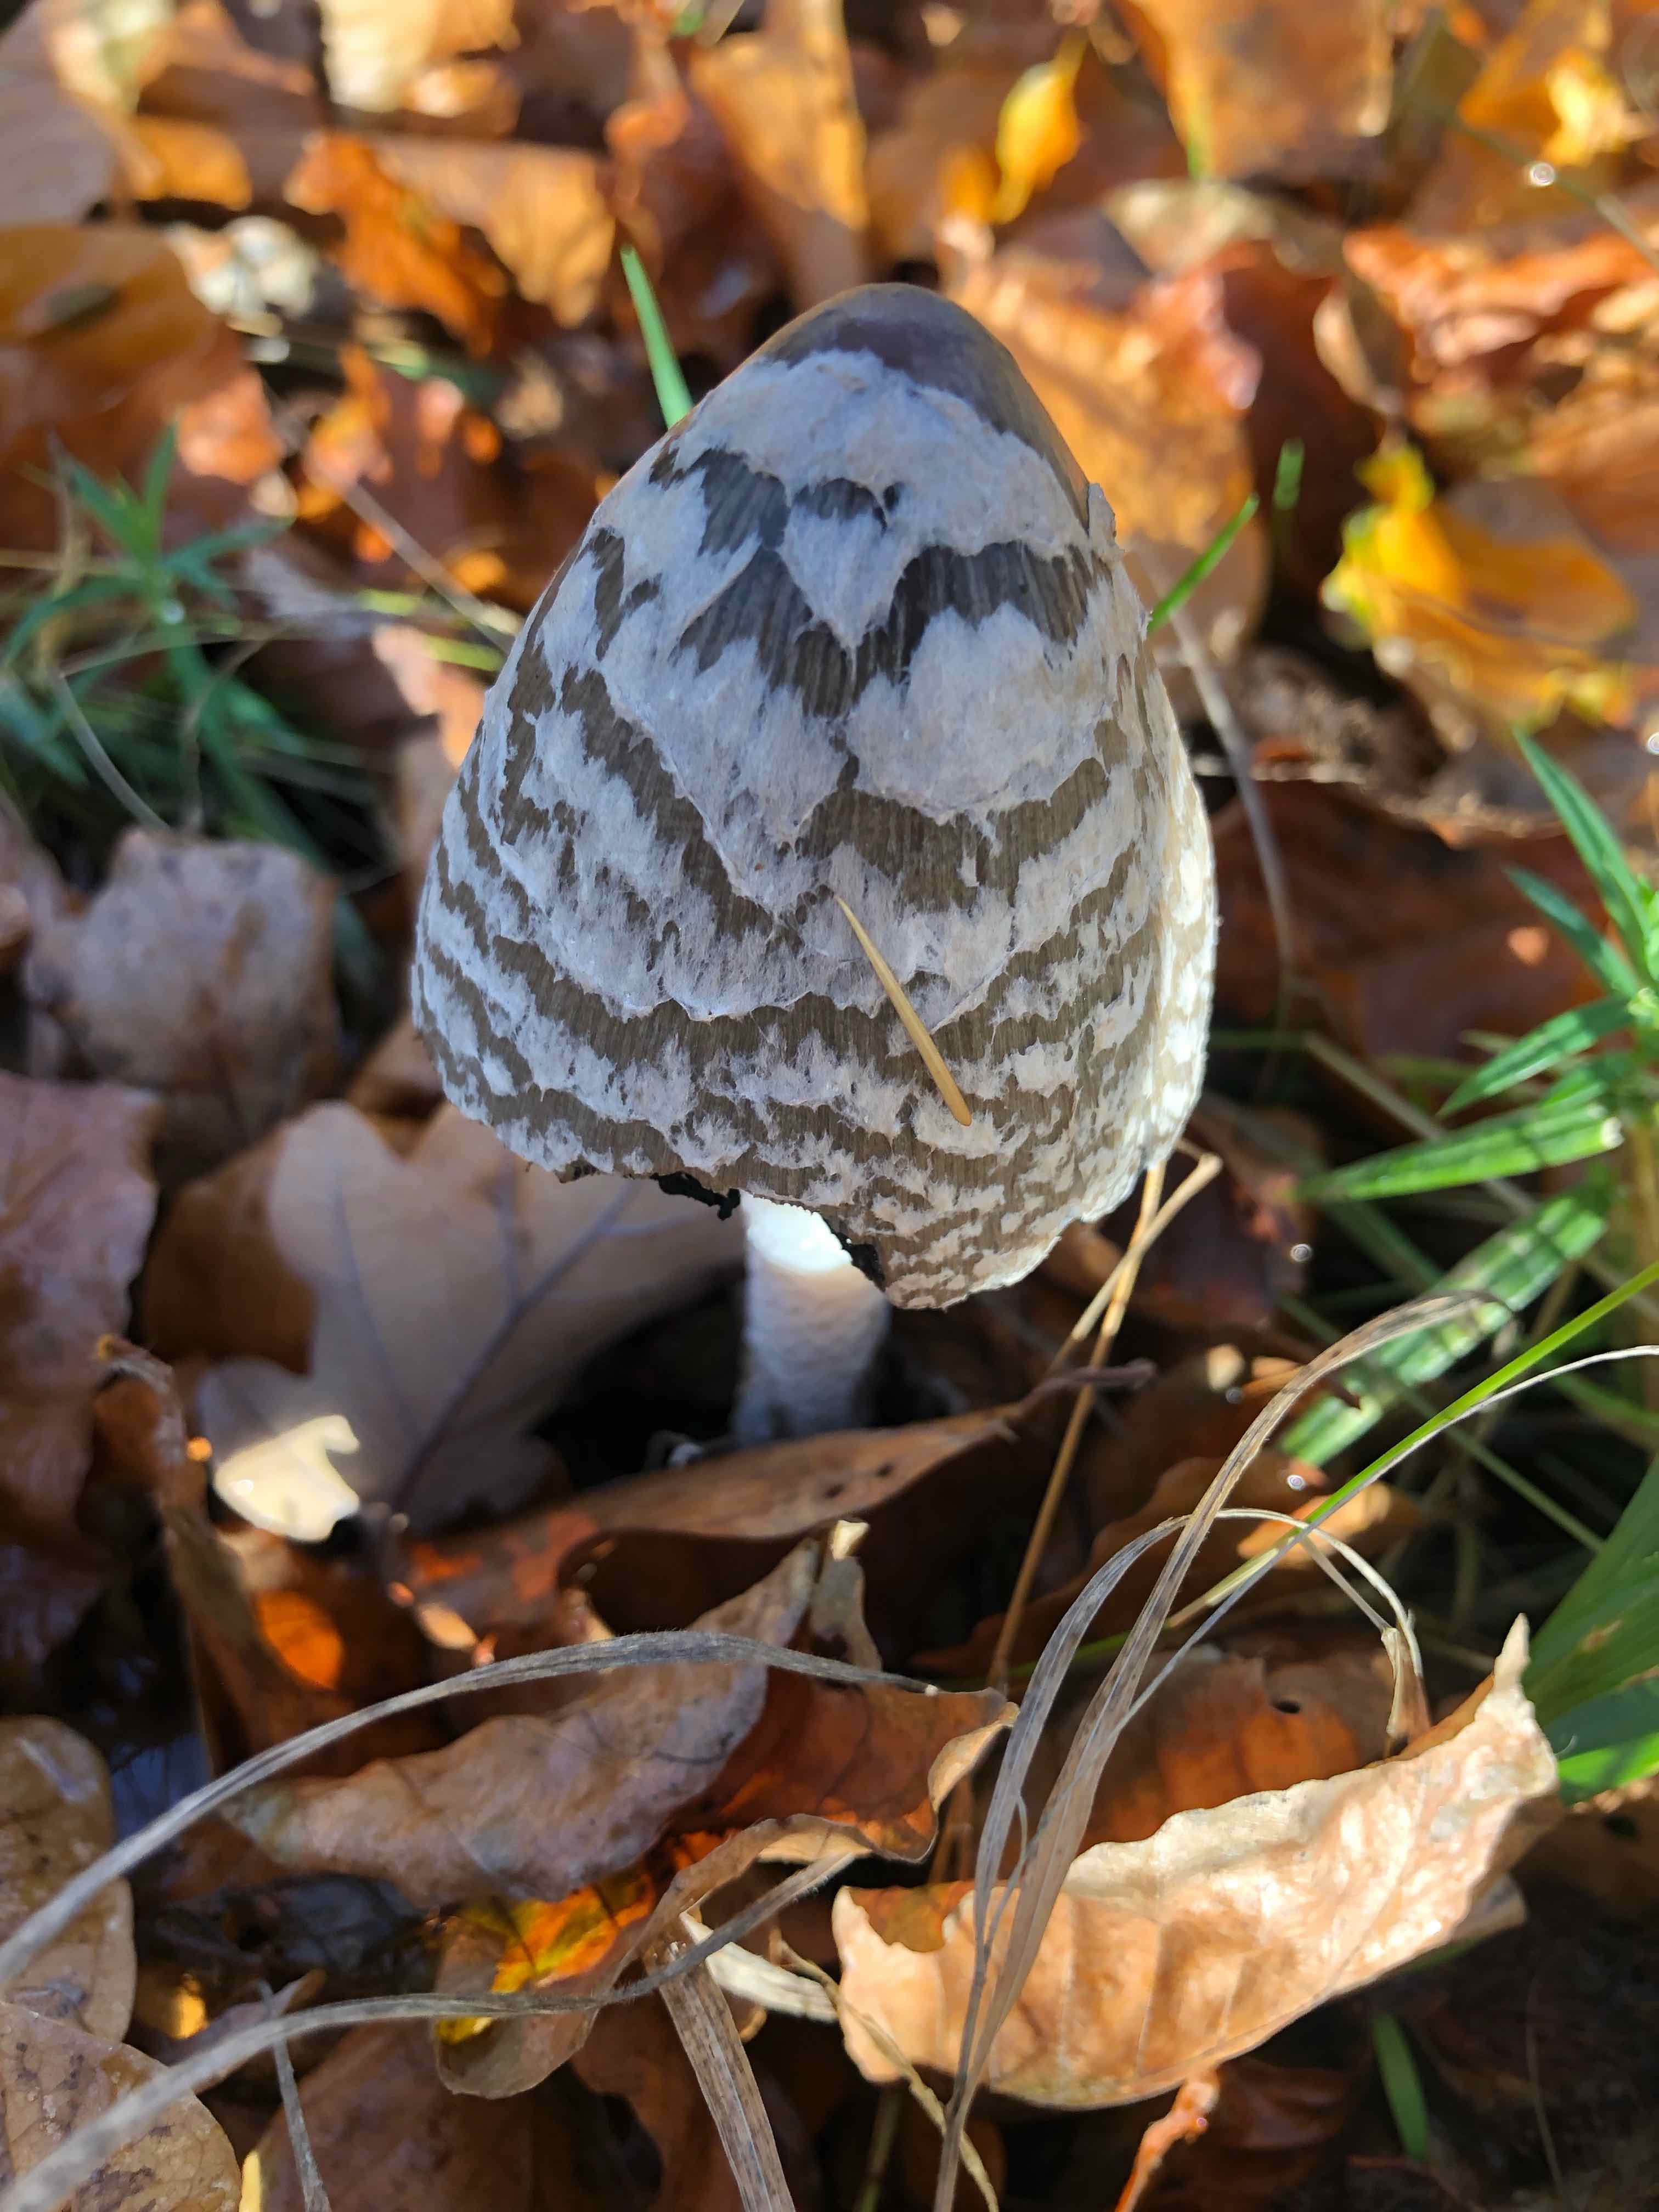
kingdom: Fungi
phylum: Basidiomycota
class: Agaricomycetes
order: Agaricales
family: Psathyrellaceae
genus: Coprinopsis
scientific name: Coprinopsis picacea
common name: skade-blækhat
